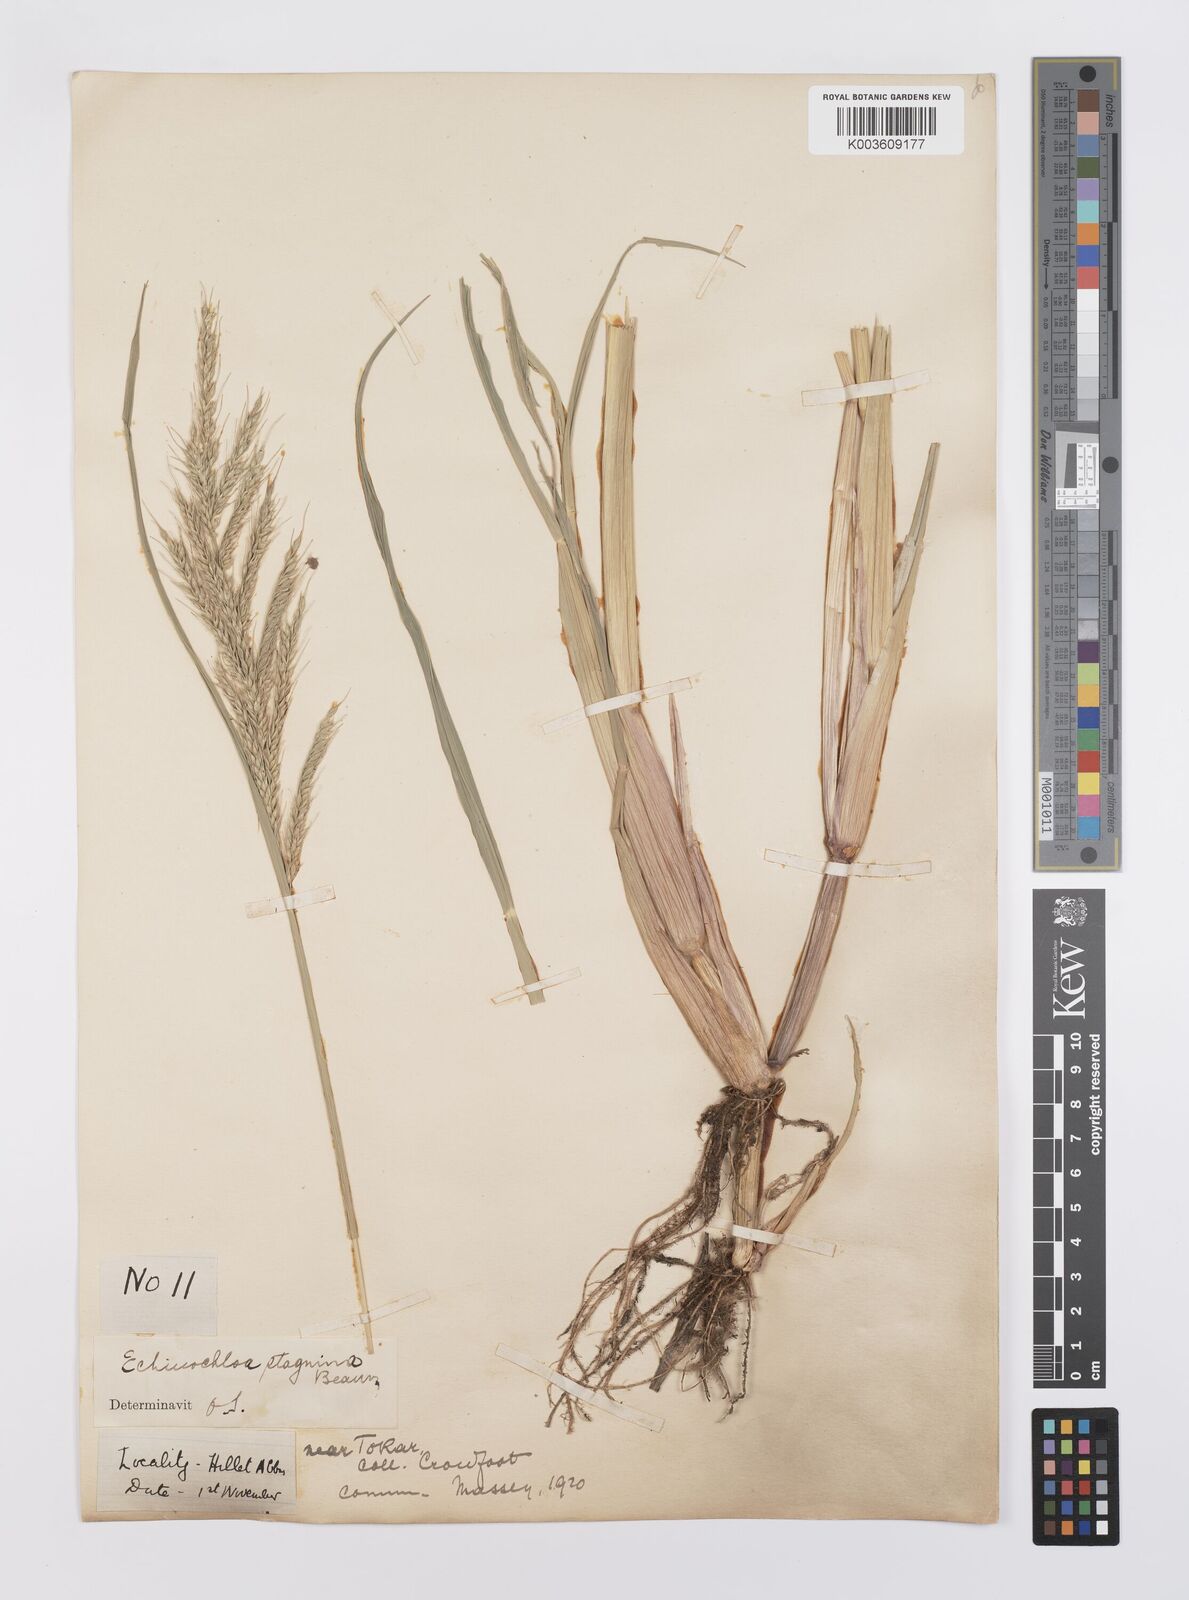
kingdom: Plantae
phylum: Tracheophyta
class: Liliopsida
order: Poales
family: Poaceae
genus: Echinochloa
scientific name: Echinochloa stagnina
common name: Burgu grass
